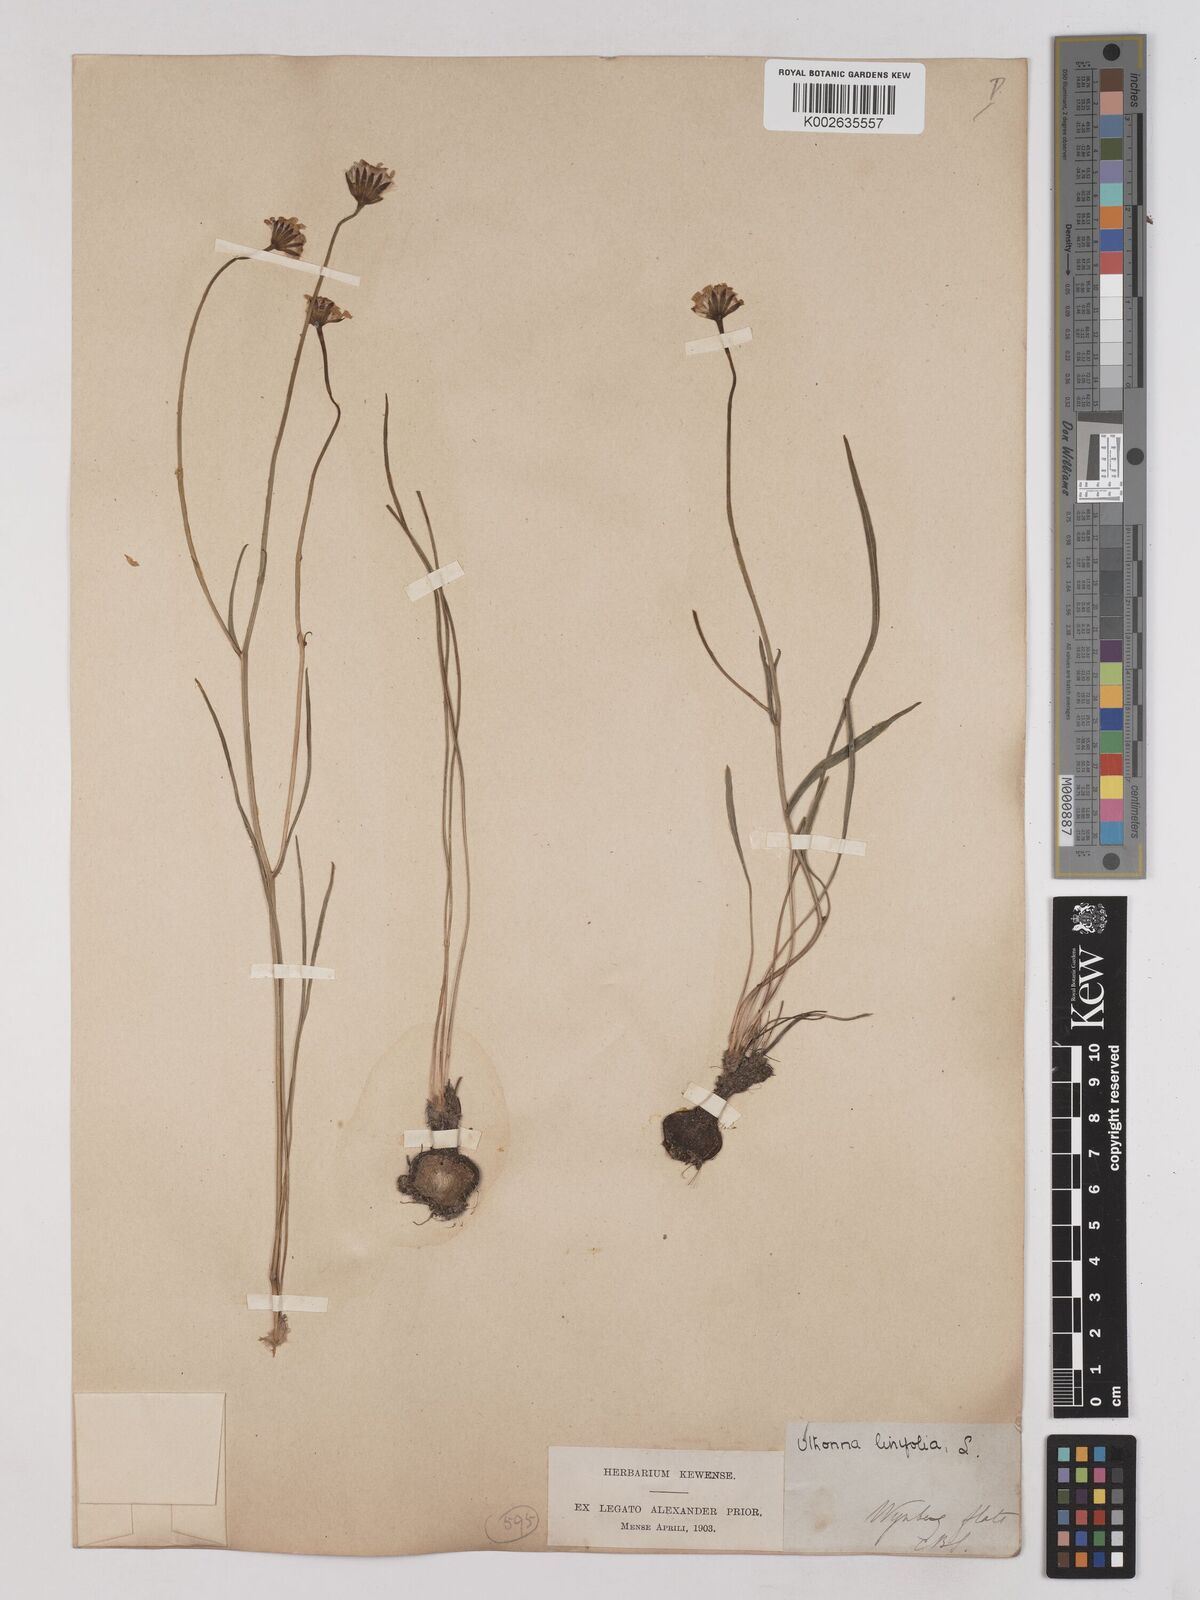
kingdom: Plantae
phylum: Tracheophyta
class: Magnoliopsida
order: Asterales
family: Asteraceae
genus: Othonna
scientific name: Othonna stenophylla
